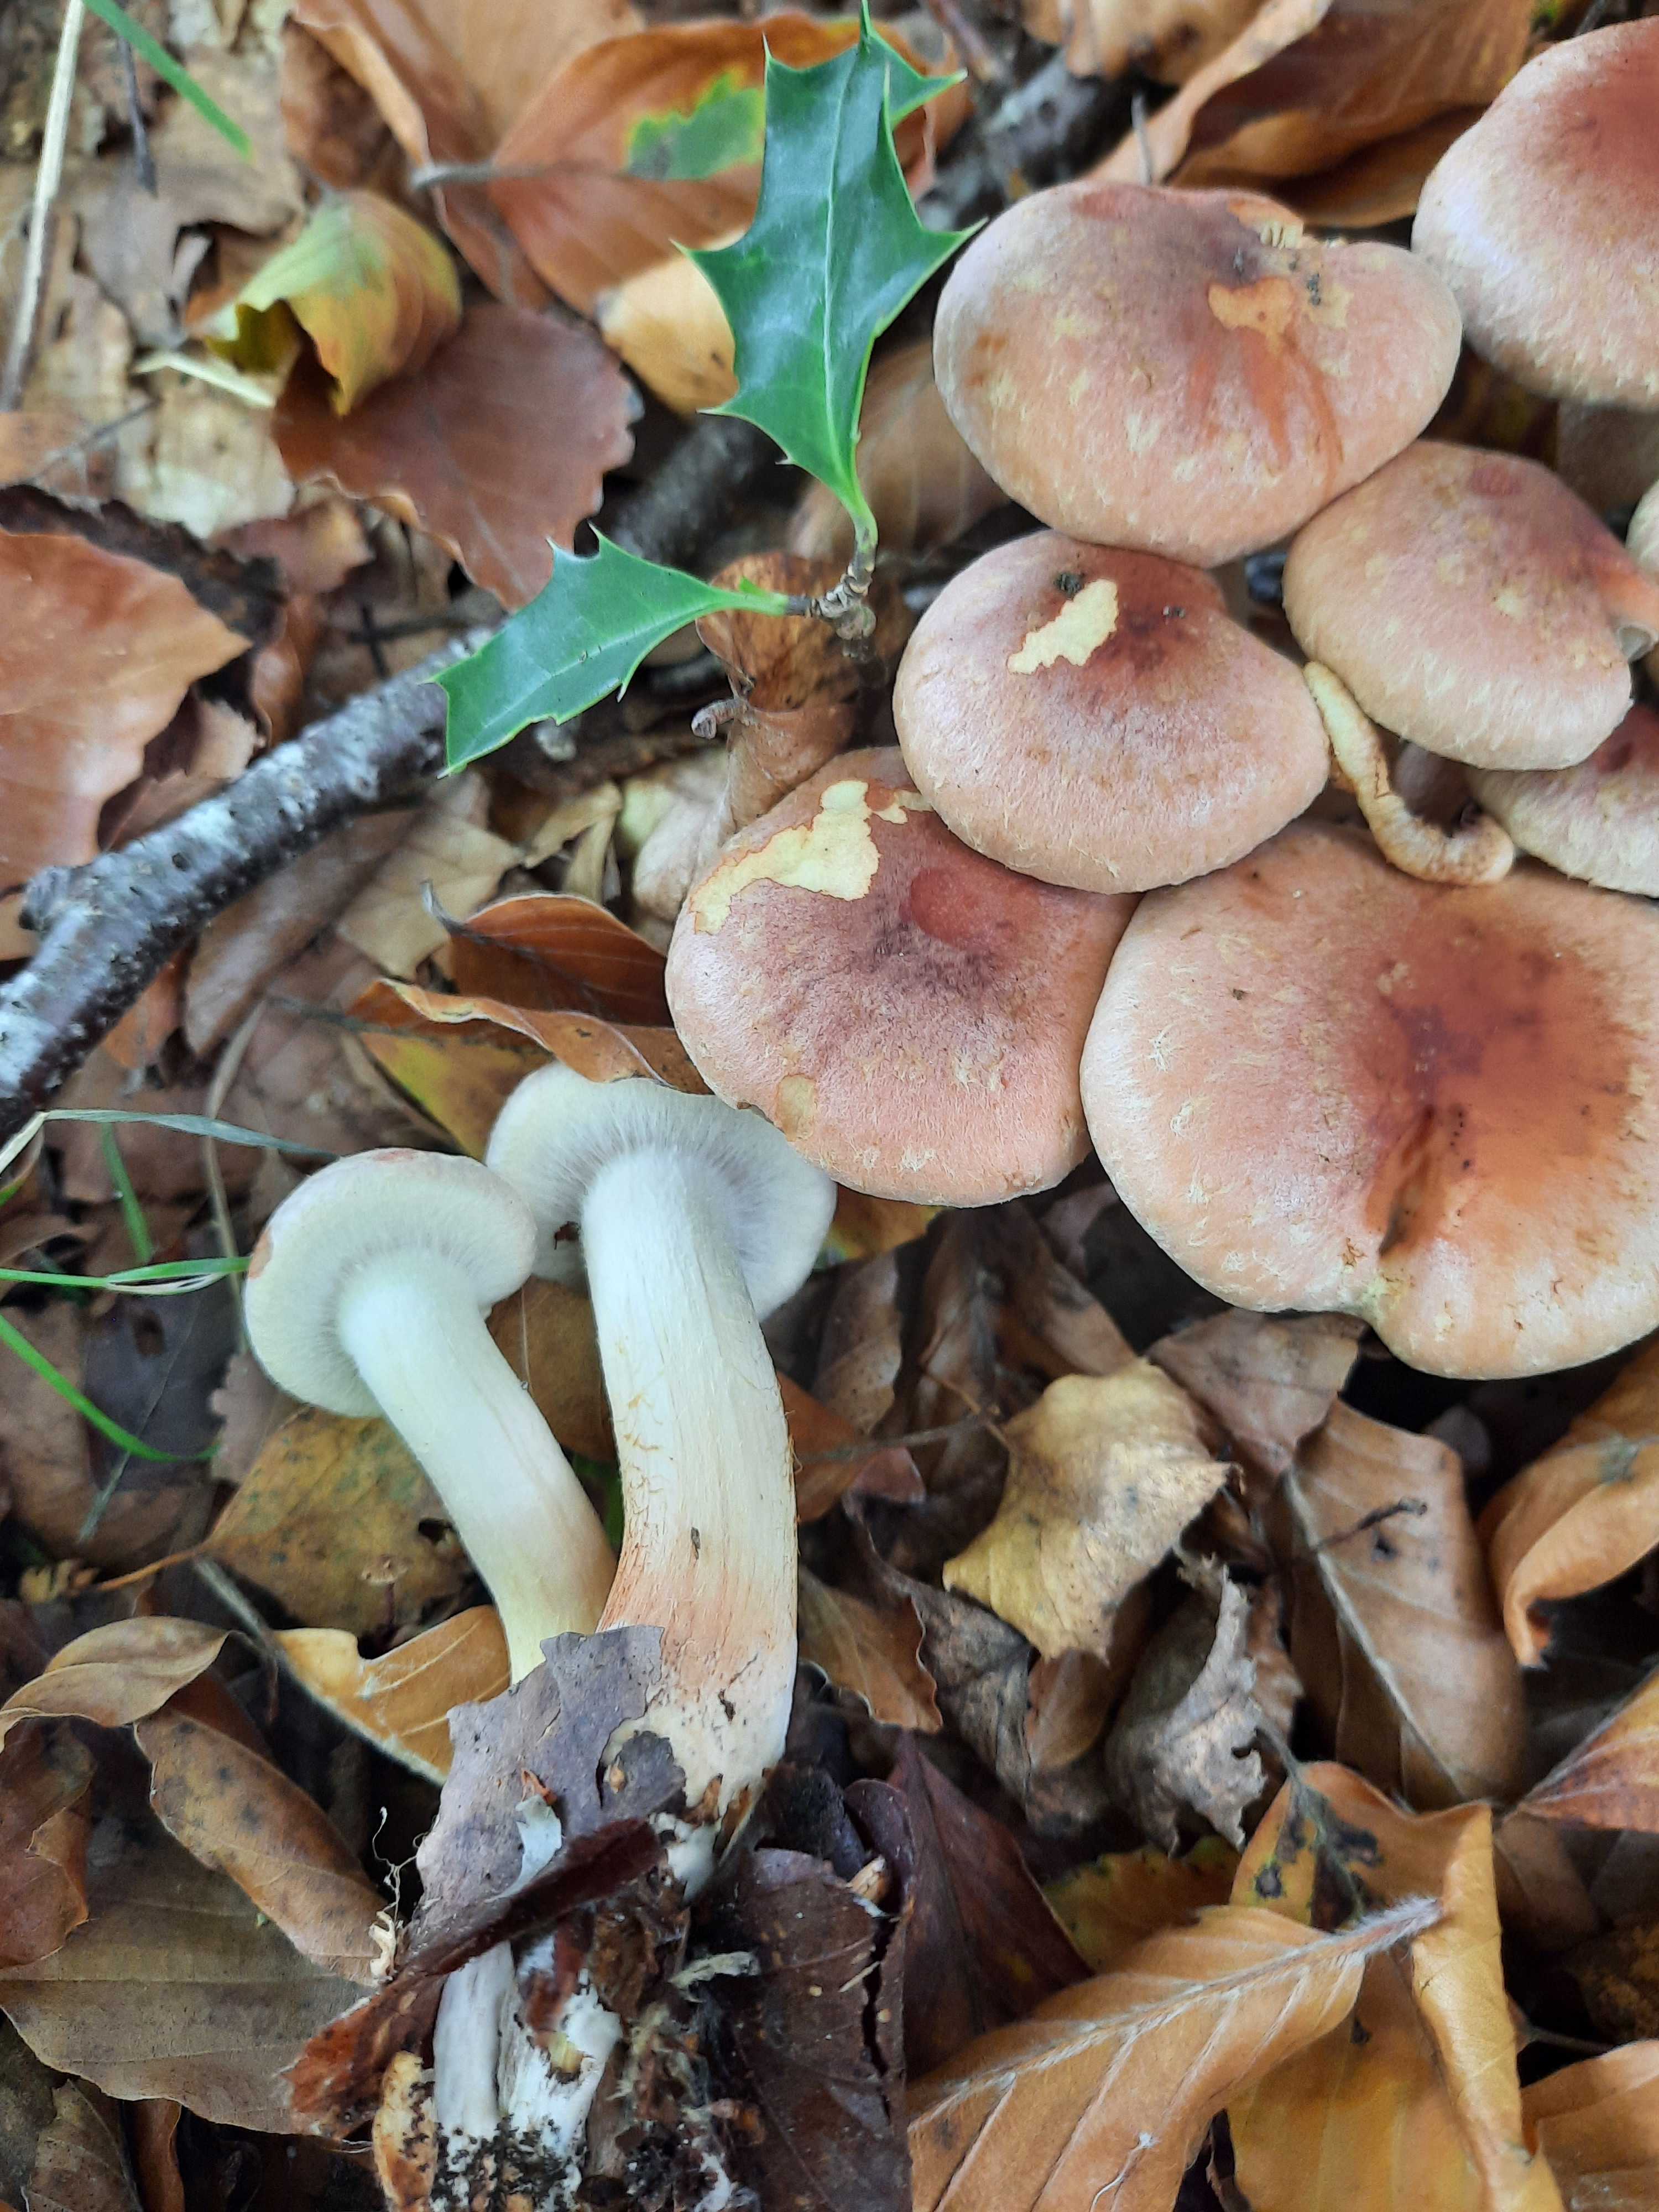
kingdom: Fungi
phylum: Basidiomycota
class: Agaricomycetes
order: Agaricales
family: Strophariaceae
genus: Hypholoma
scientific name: Hypholoma lateritium
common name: teglrød svovlhat
